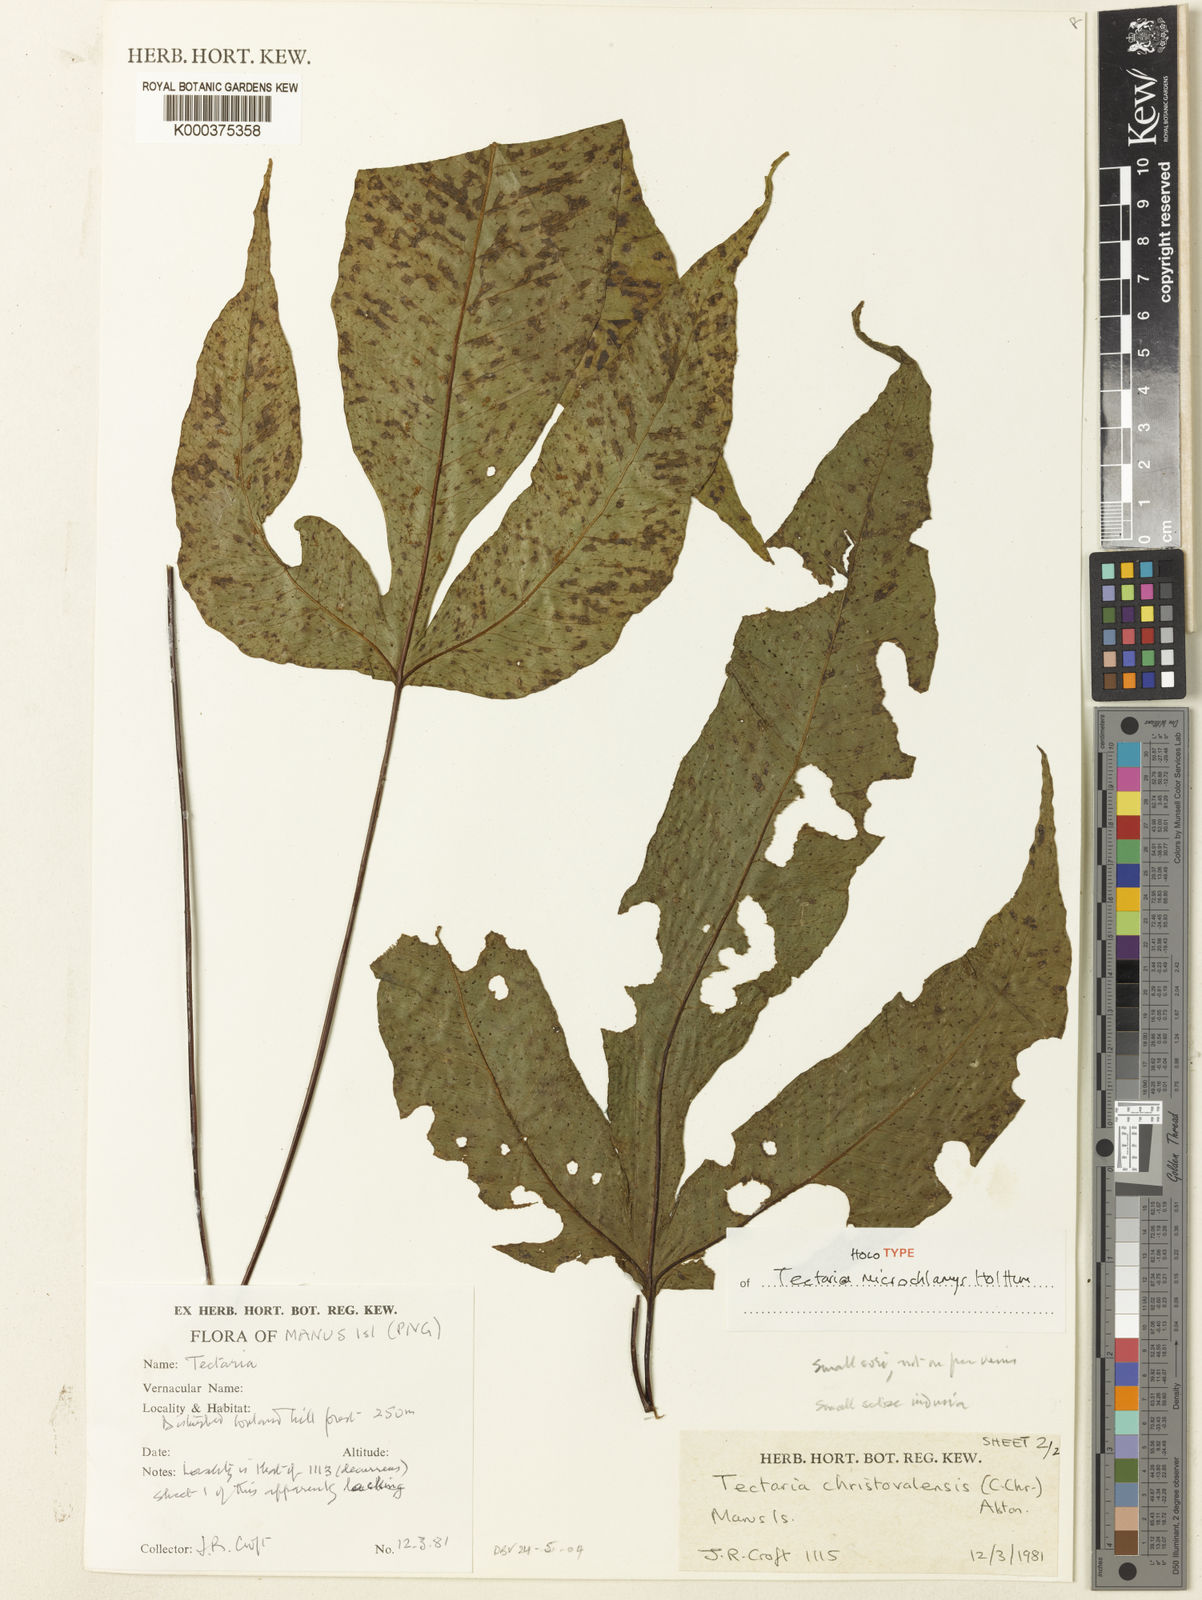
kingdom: Plantae
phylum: Tracheophyta
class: Polypodiopsida
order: Polypodiales
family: Tectariaceae
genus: Tectaria
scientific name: Tectaria microchlamys
